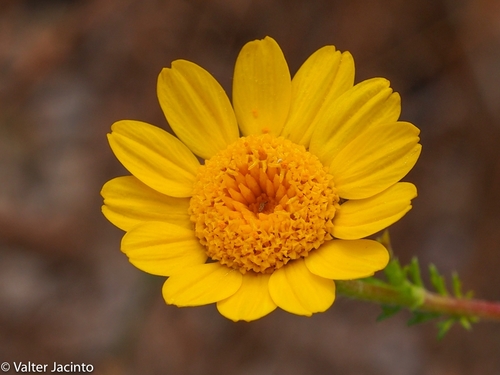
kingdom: Plantae
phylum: Tracheophyta
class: Magnoliopsida
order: Asterales
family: Asteraceae
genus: Anacyclus
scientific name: Anacyclus radiatus
